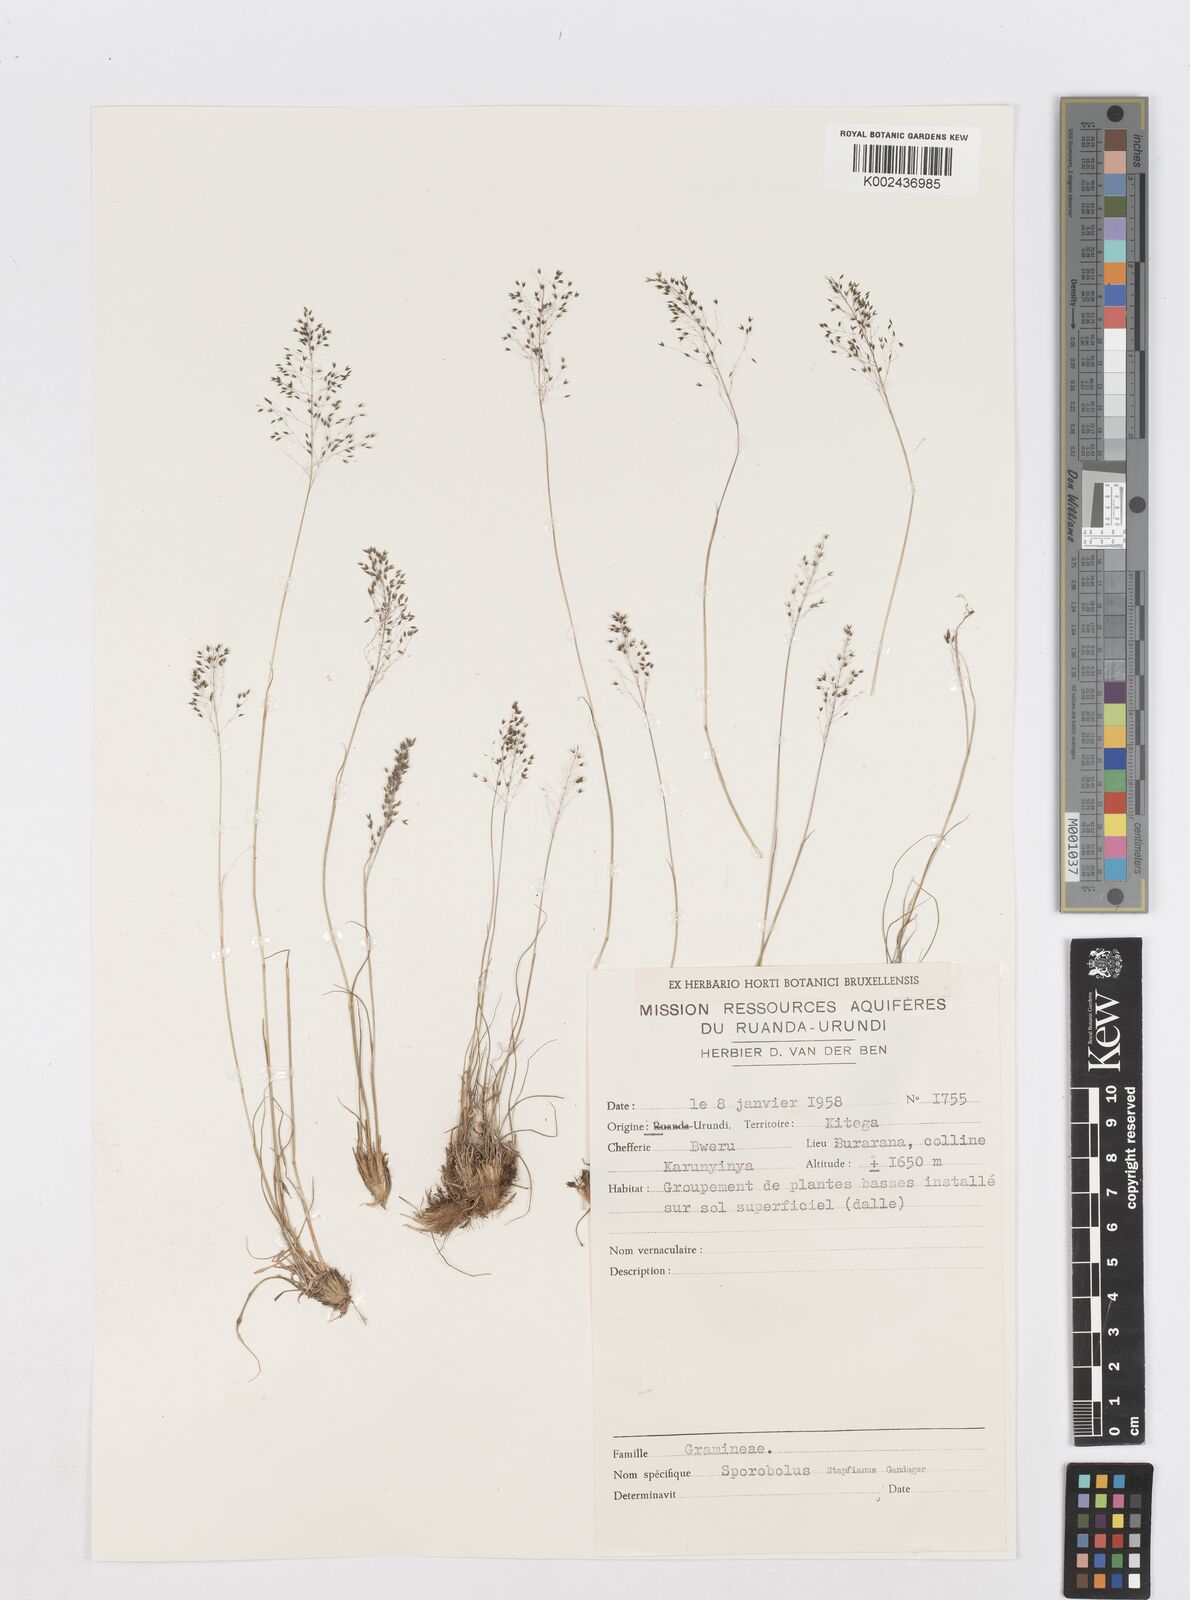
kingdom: Plantae
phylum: Tracheophyta
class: Liliopsida
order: Poales
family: Poaceae
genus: Sporobolus
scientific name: Sporobolus stapfianus
